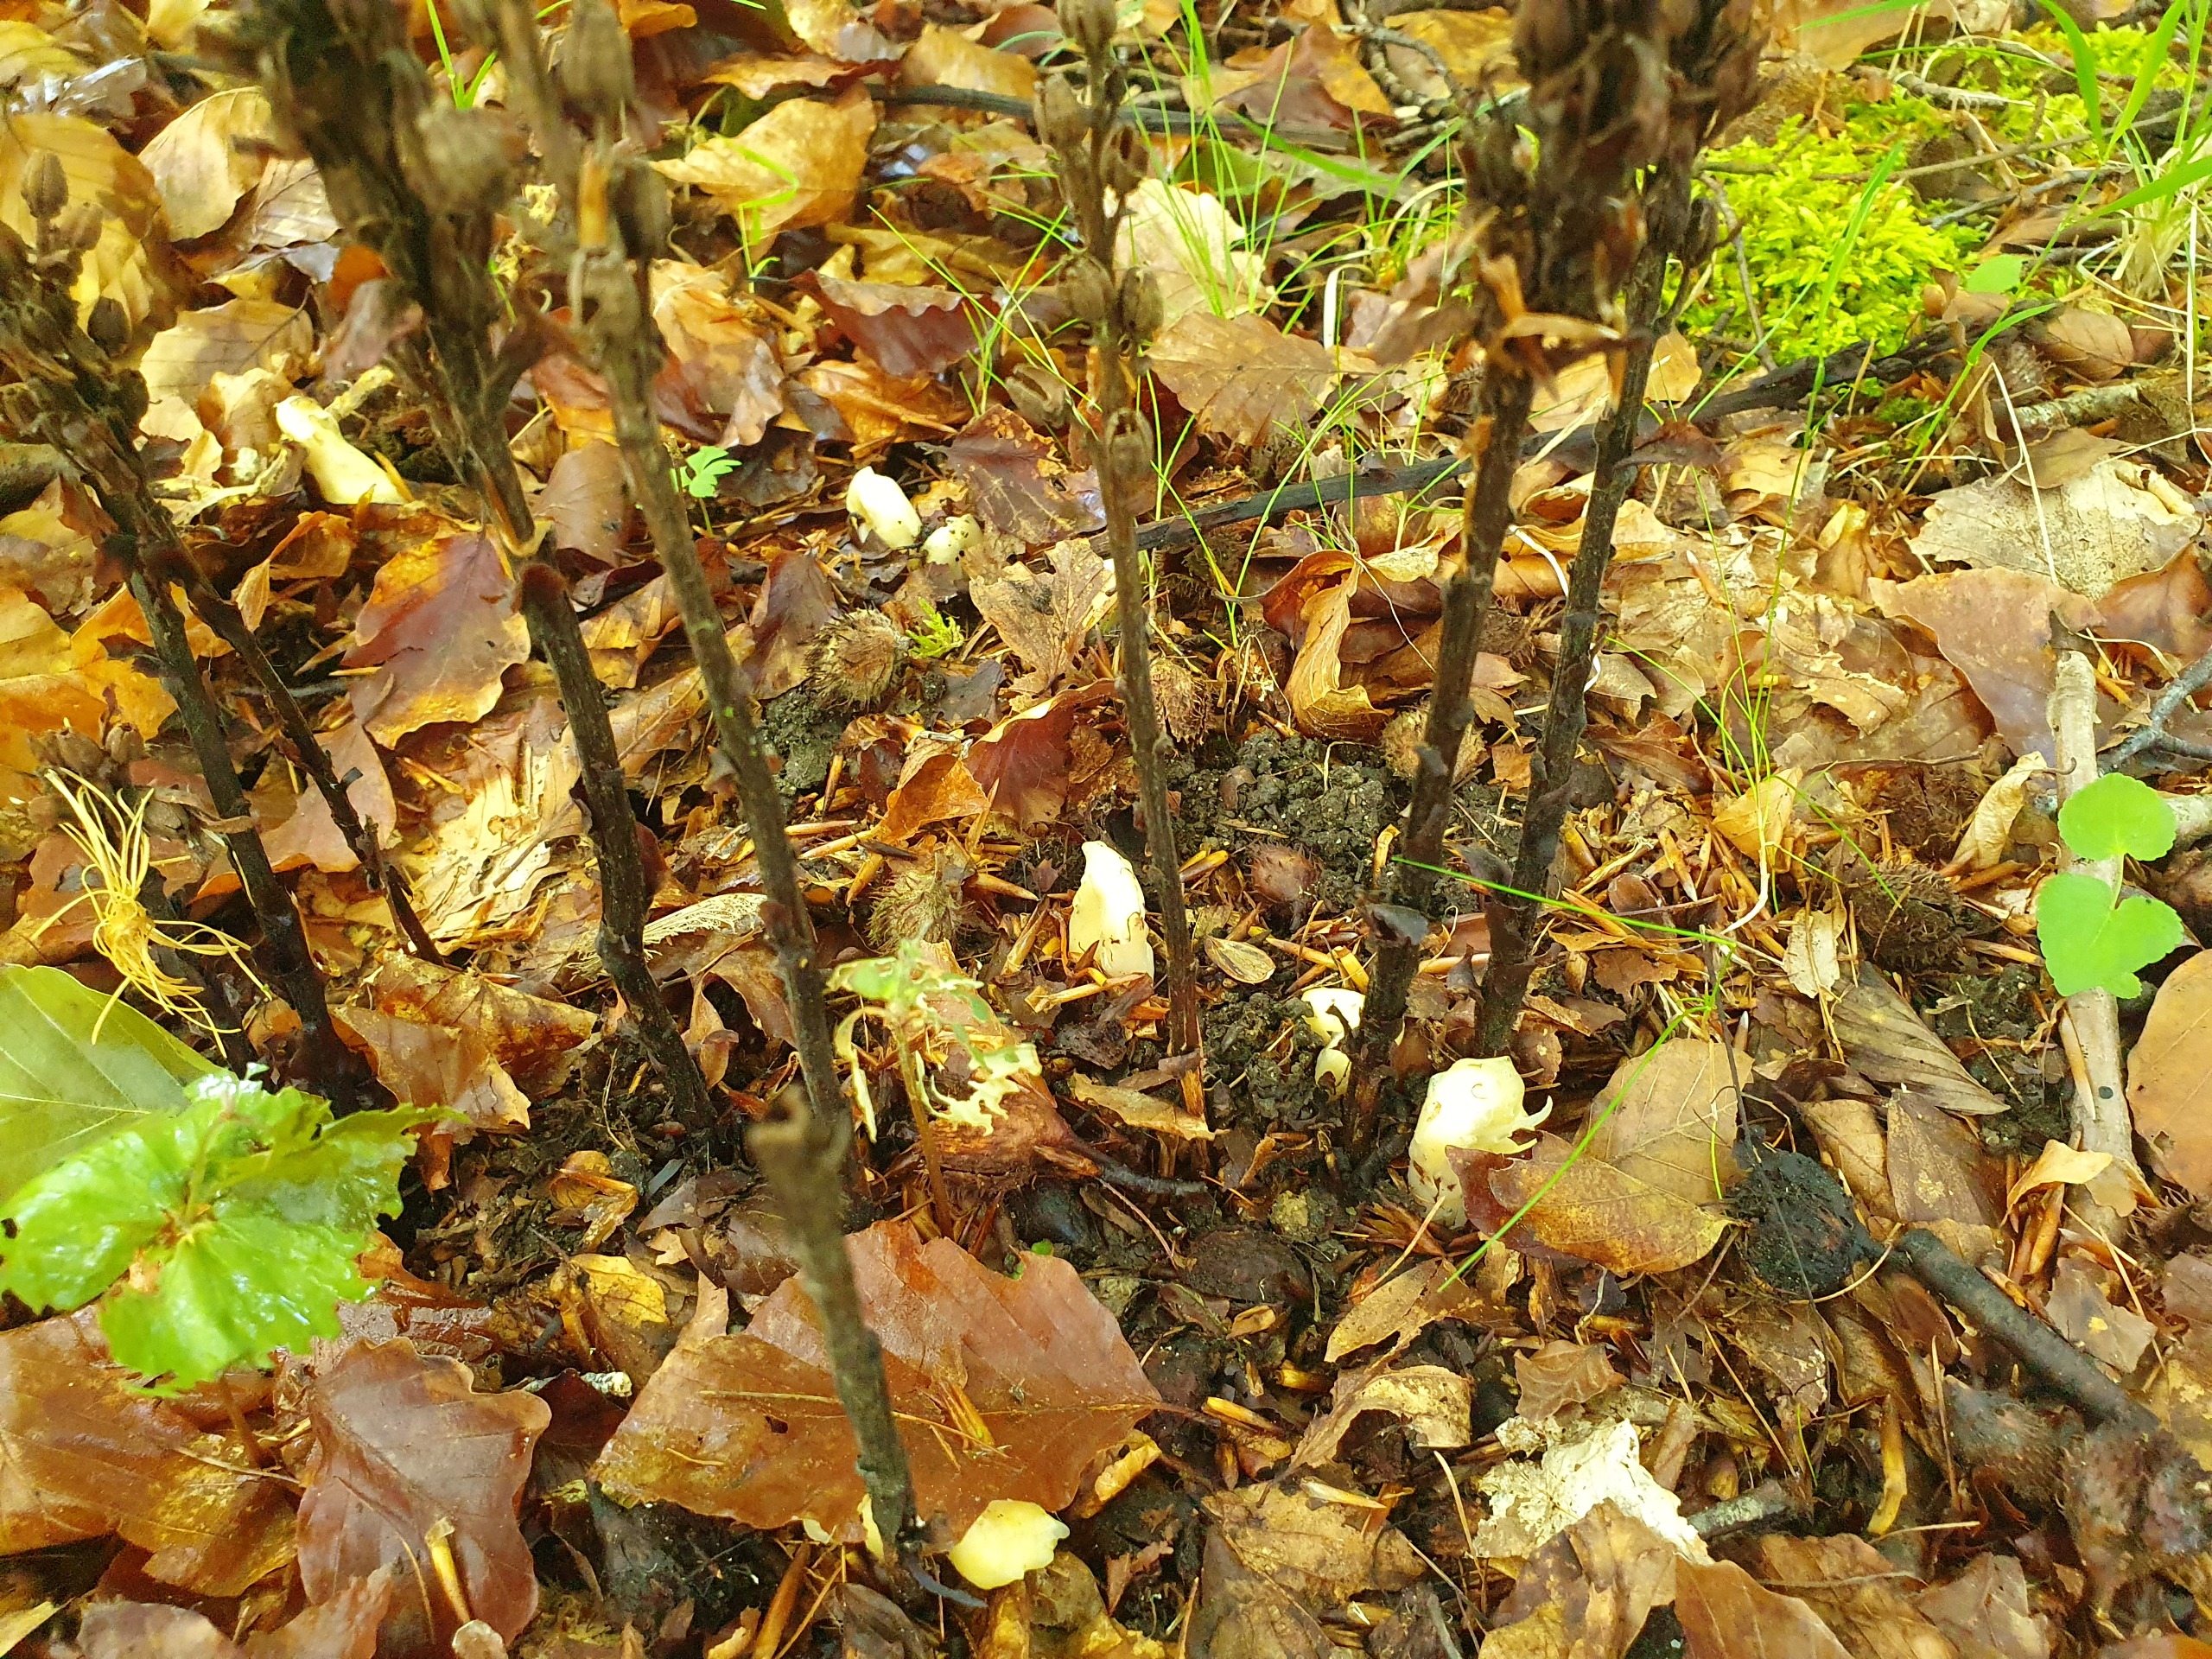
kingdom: Plantae
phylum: Tracheophyta
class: Magnoliopsida
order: Ericales
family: Ericaceae
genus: Hypopitys
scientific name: Hypopitys monotropa
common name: Snylterod
